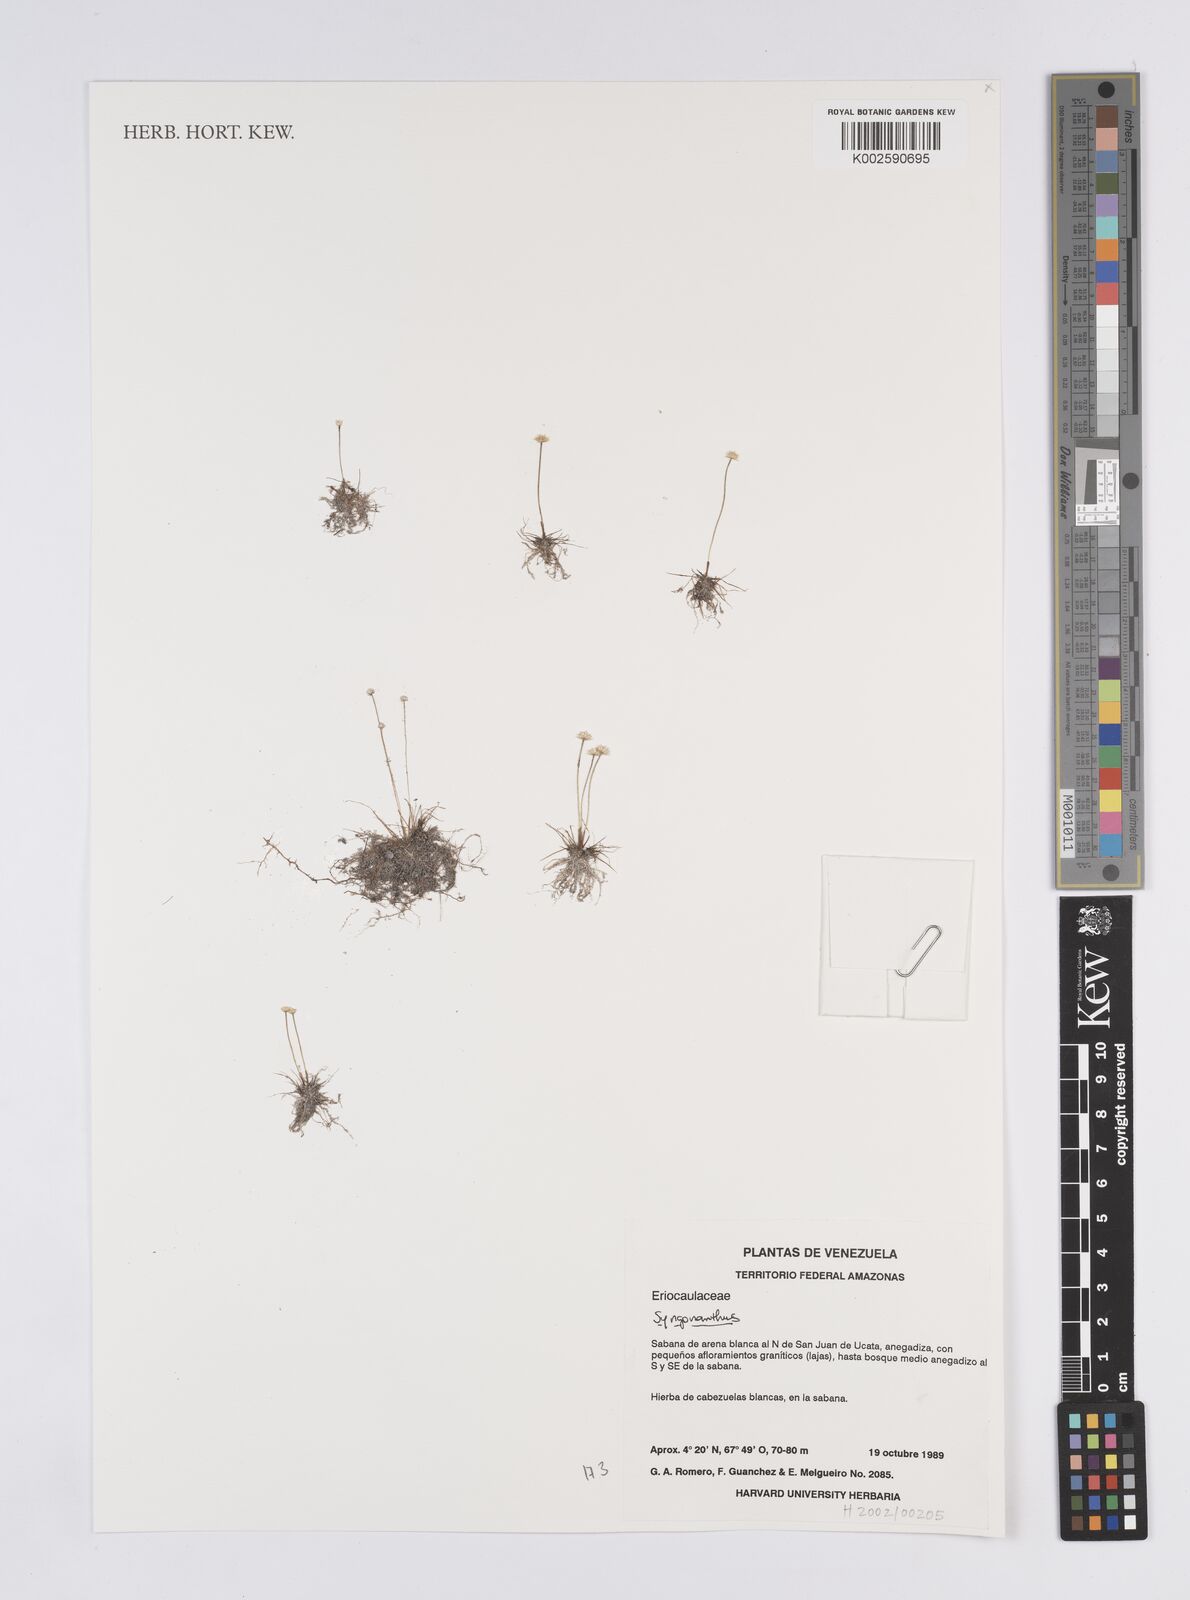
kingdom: Plantae
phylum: Tracheophyta
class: Liliopsida
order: Poales
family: Eriocaulaceae
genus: Syngonanthus
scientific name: Syngonanthus
